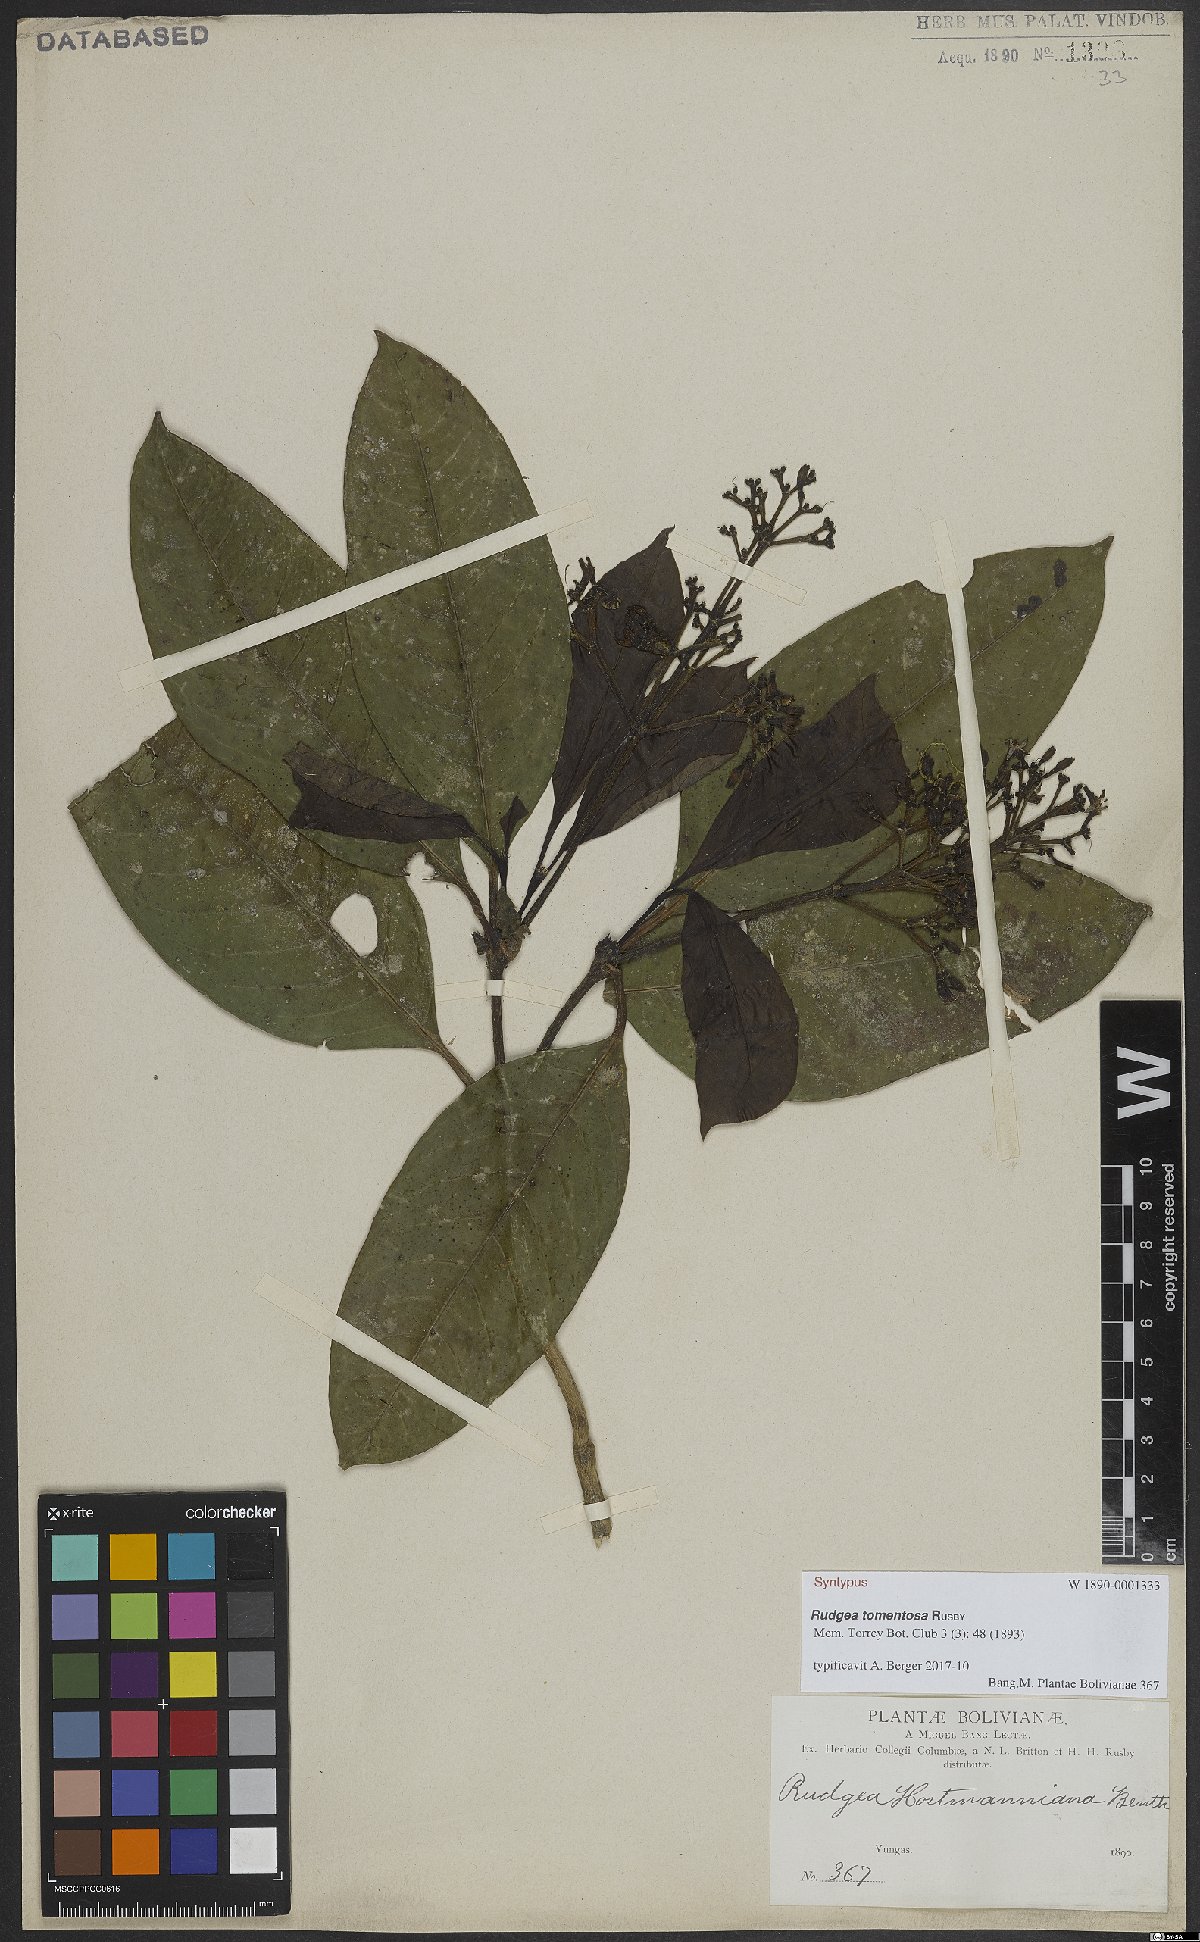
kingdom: Plantae
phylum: Tracheophyta
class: Magnoliopsida
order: Gentianales
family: Rubiaceae
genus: Rudgea
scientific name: Rudgea tomentosa
